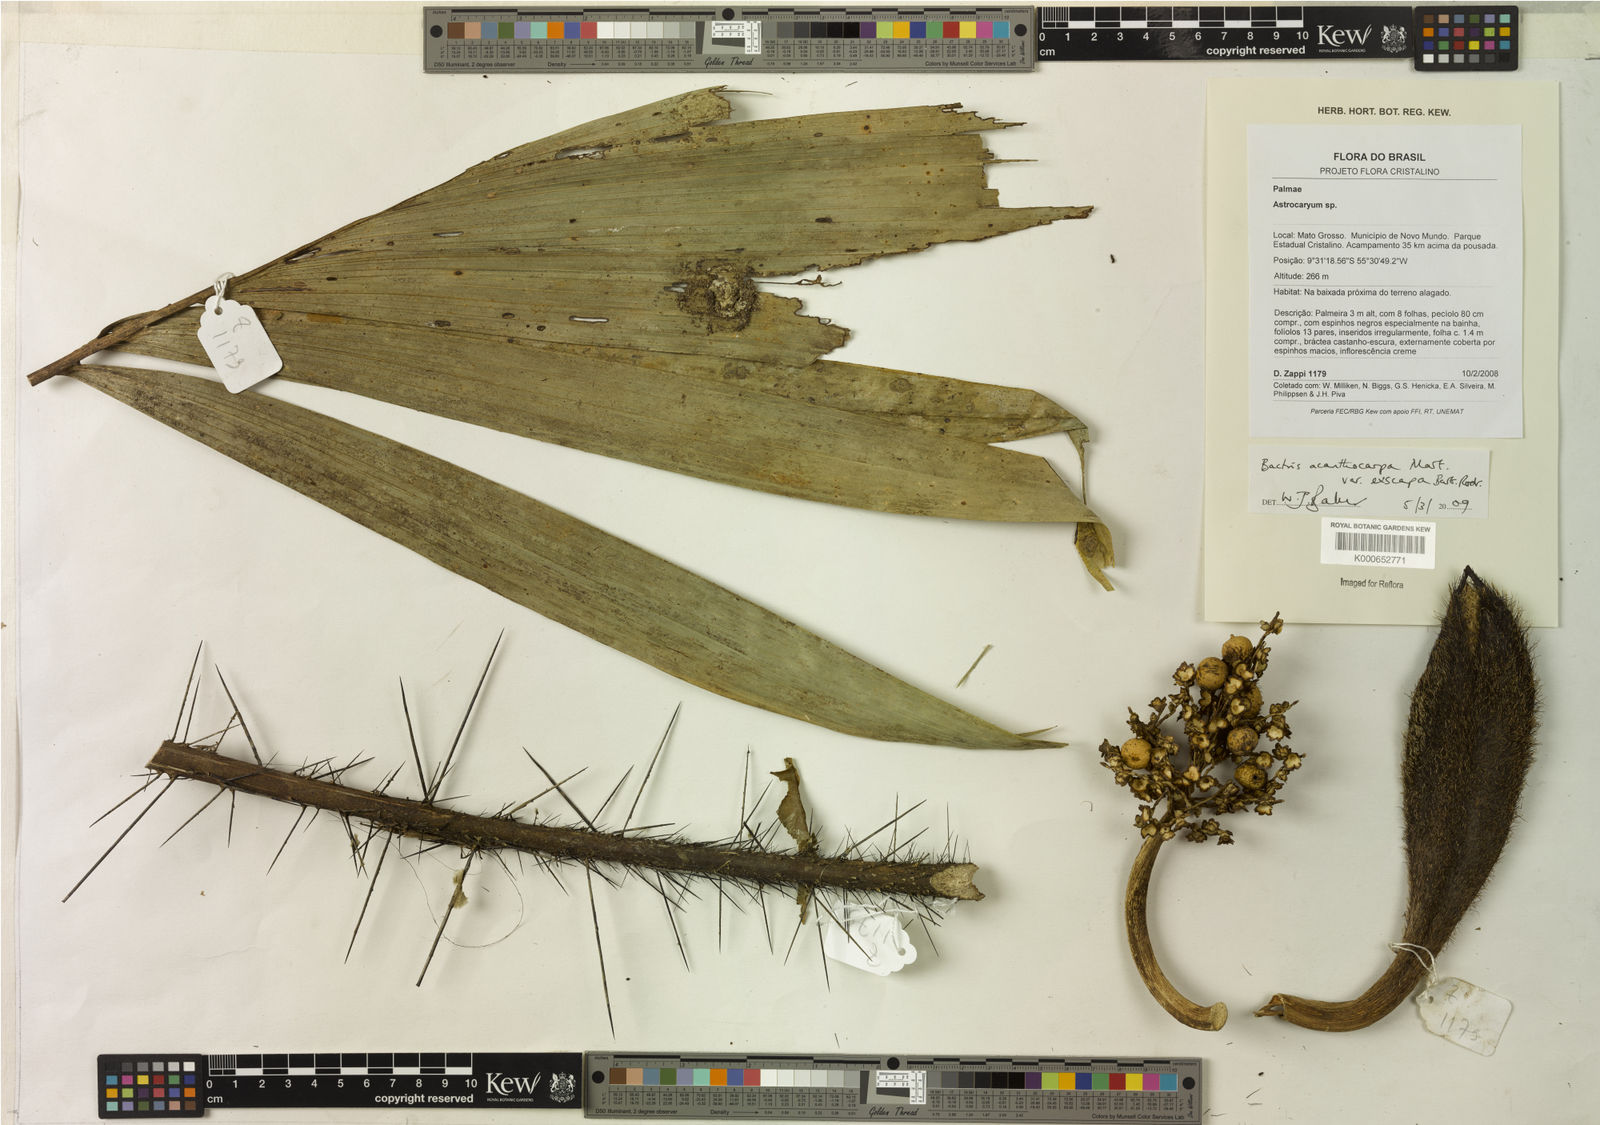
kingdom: Plantae
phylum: Tracheophyta
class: Liliopsida
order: Arecales
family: Arecaceae
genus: Bactris
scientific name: Bactris acanthocarpa
